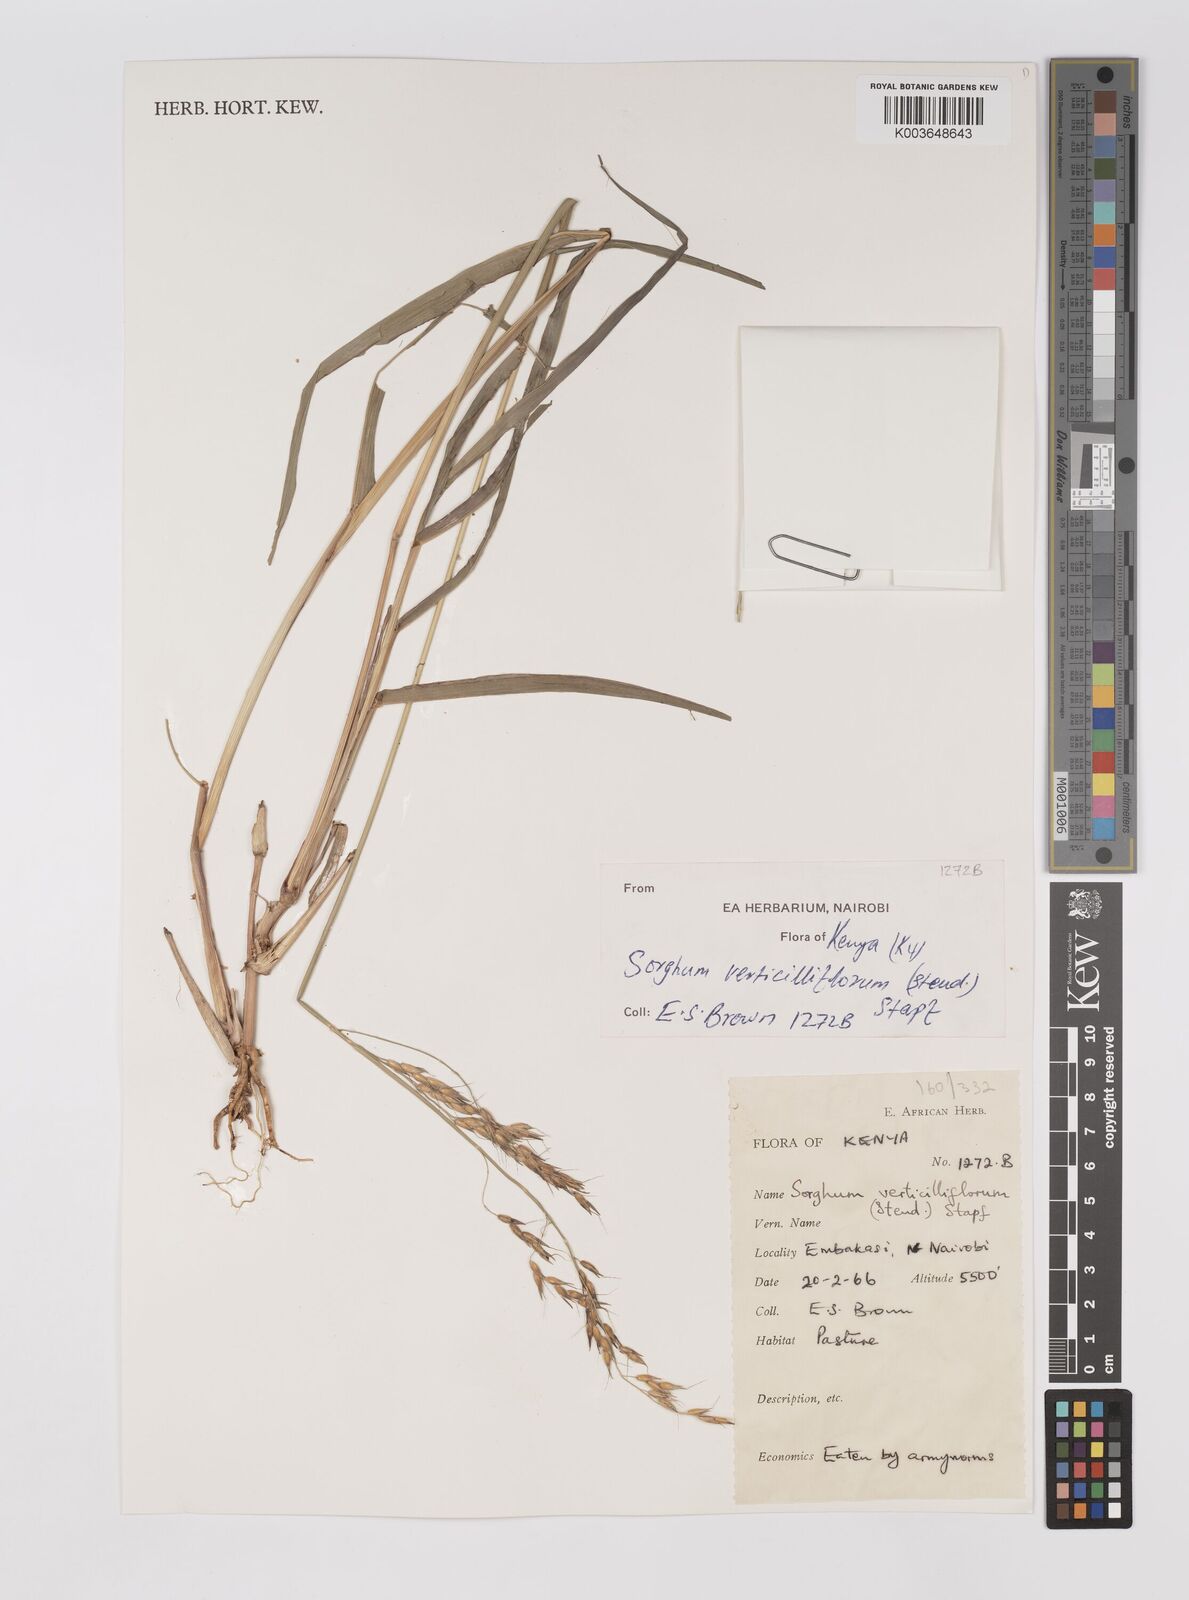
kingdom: Plantae
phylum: Tracheophyta
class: Liliopsida
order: Poales
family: Poaceae
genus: Sorghum
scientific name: Sorghum arundinaceum
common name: Sorghum
